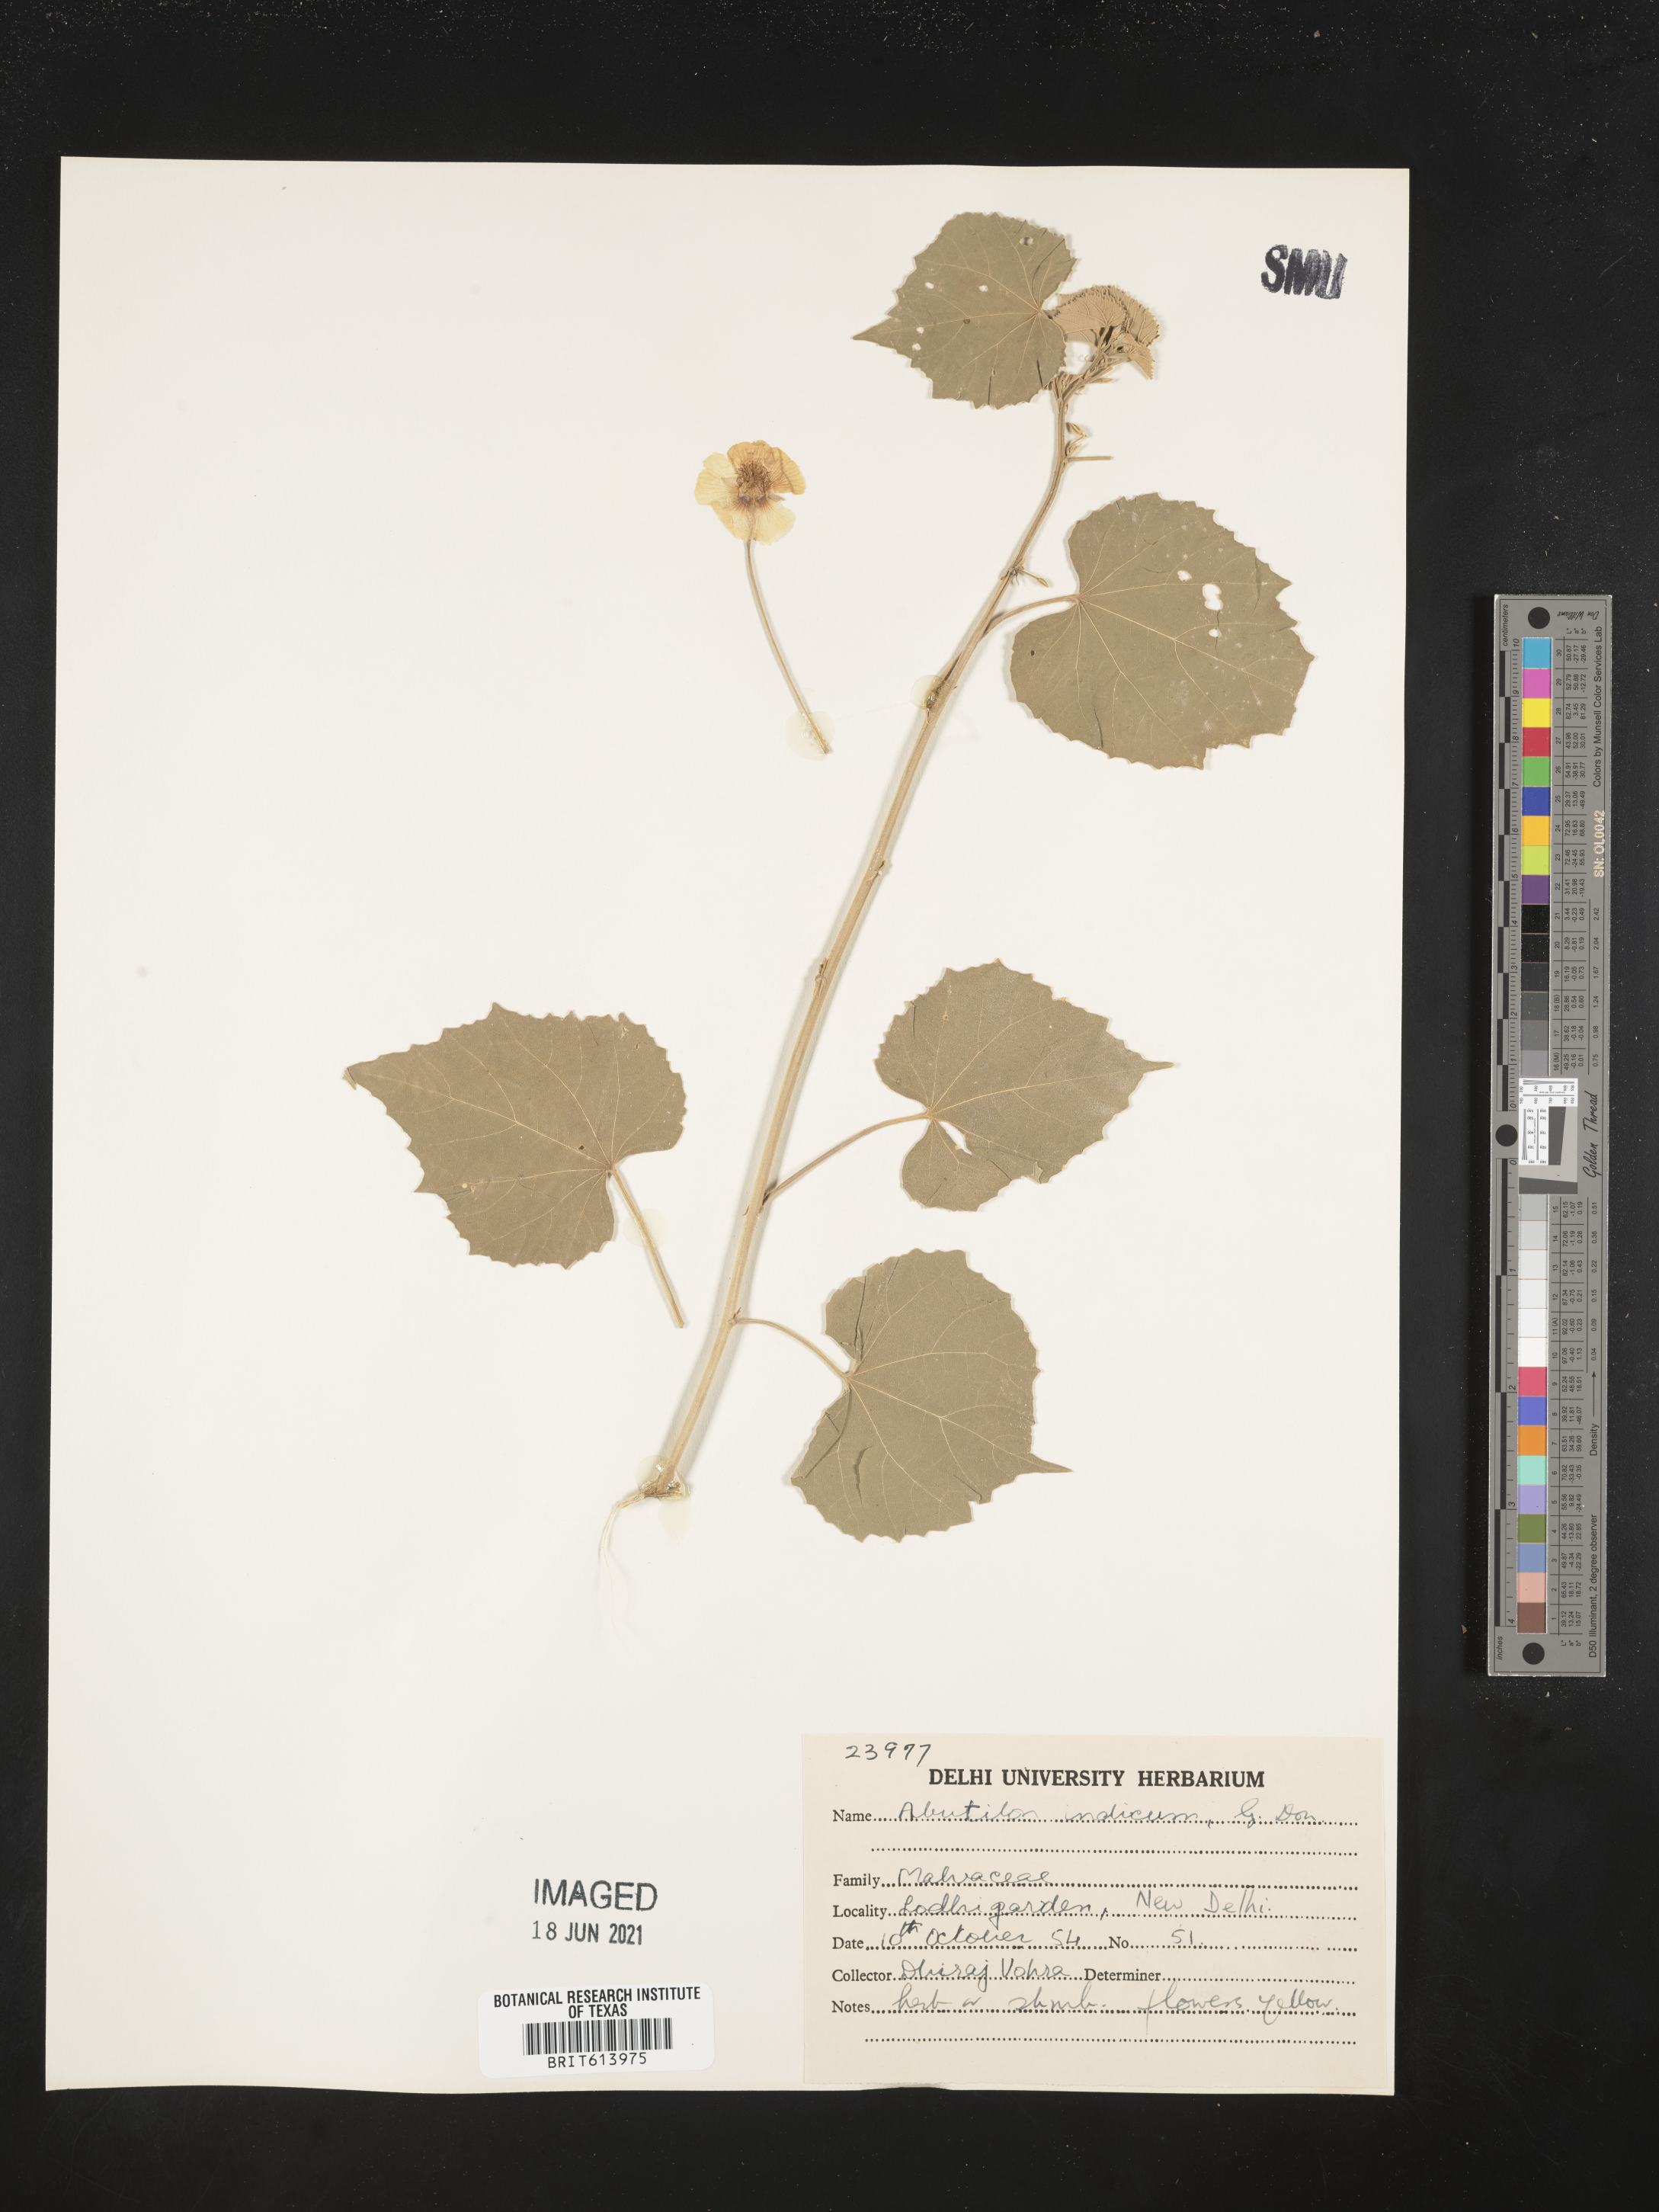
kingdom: Plantae
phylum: Tracheophyta
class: Magnoliopsida
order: Malvales
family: Malvaceae
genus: Abutilon
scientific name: Abutilon indicum
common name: Indian abutilon
